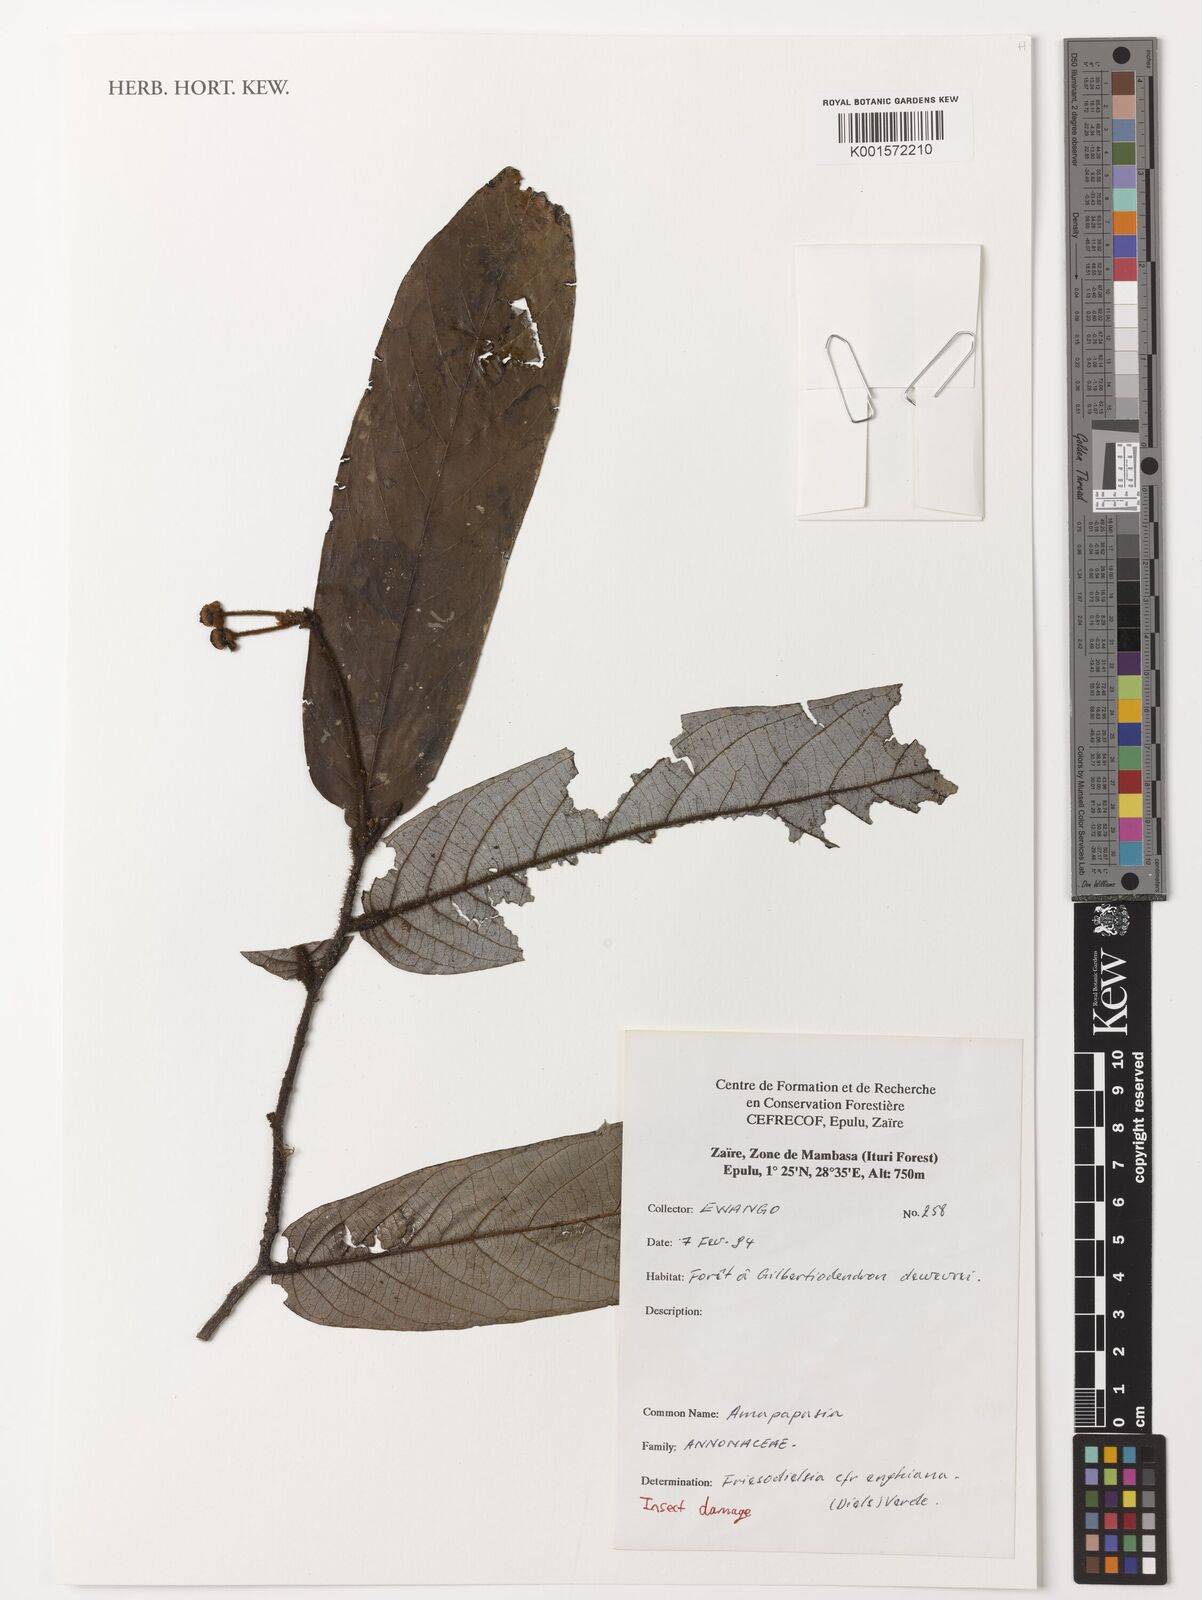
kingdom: Plantae
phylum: Tracheophyta
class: Magnoliopsida
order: Magnoliales
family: Annonaceae
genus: Friesodielsia
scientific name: Friesodielsia enghiana
